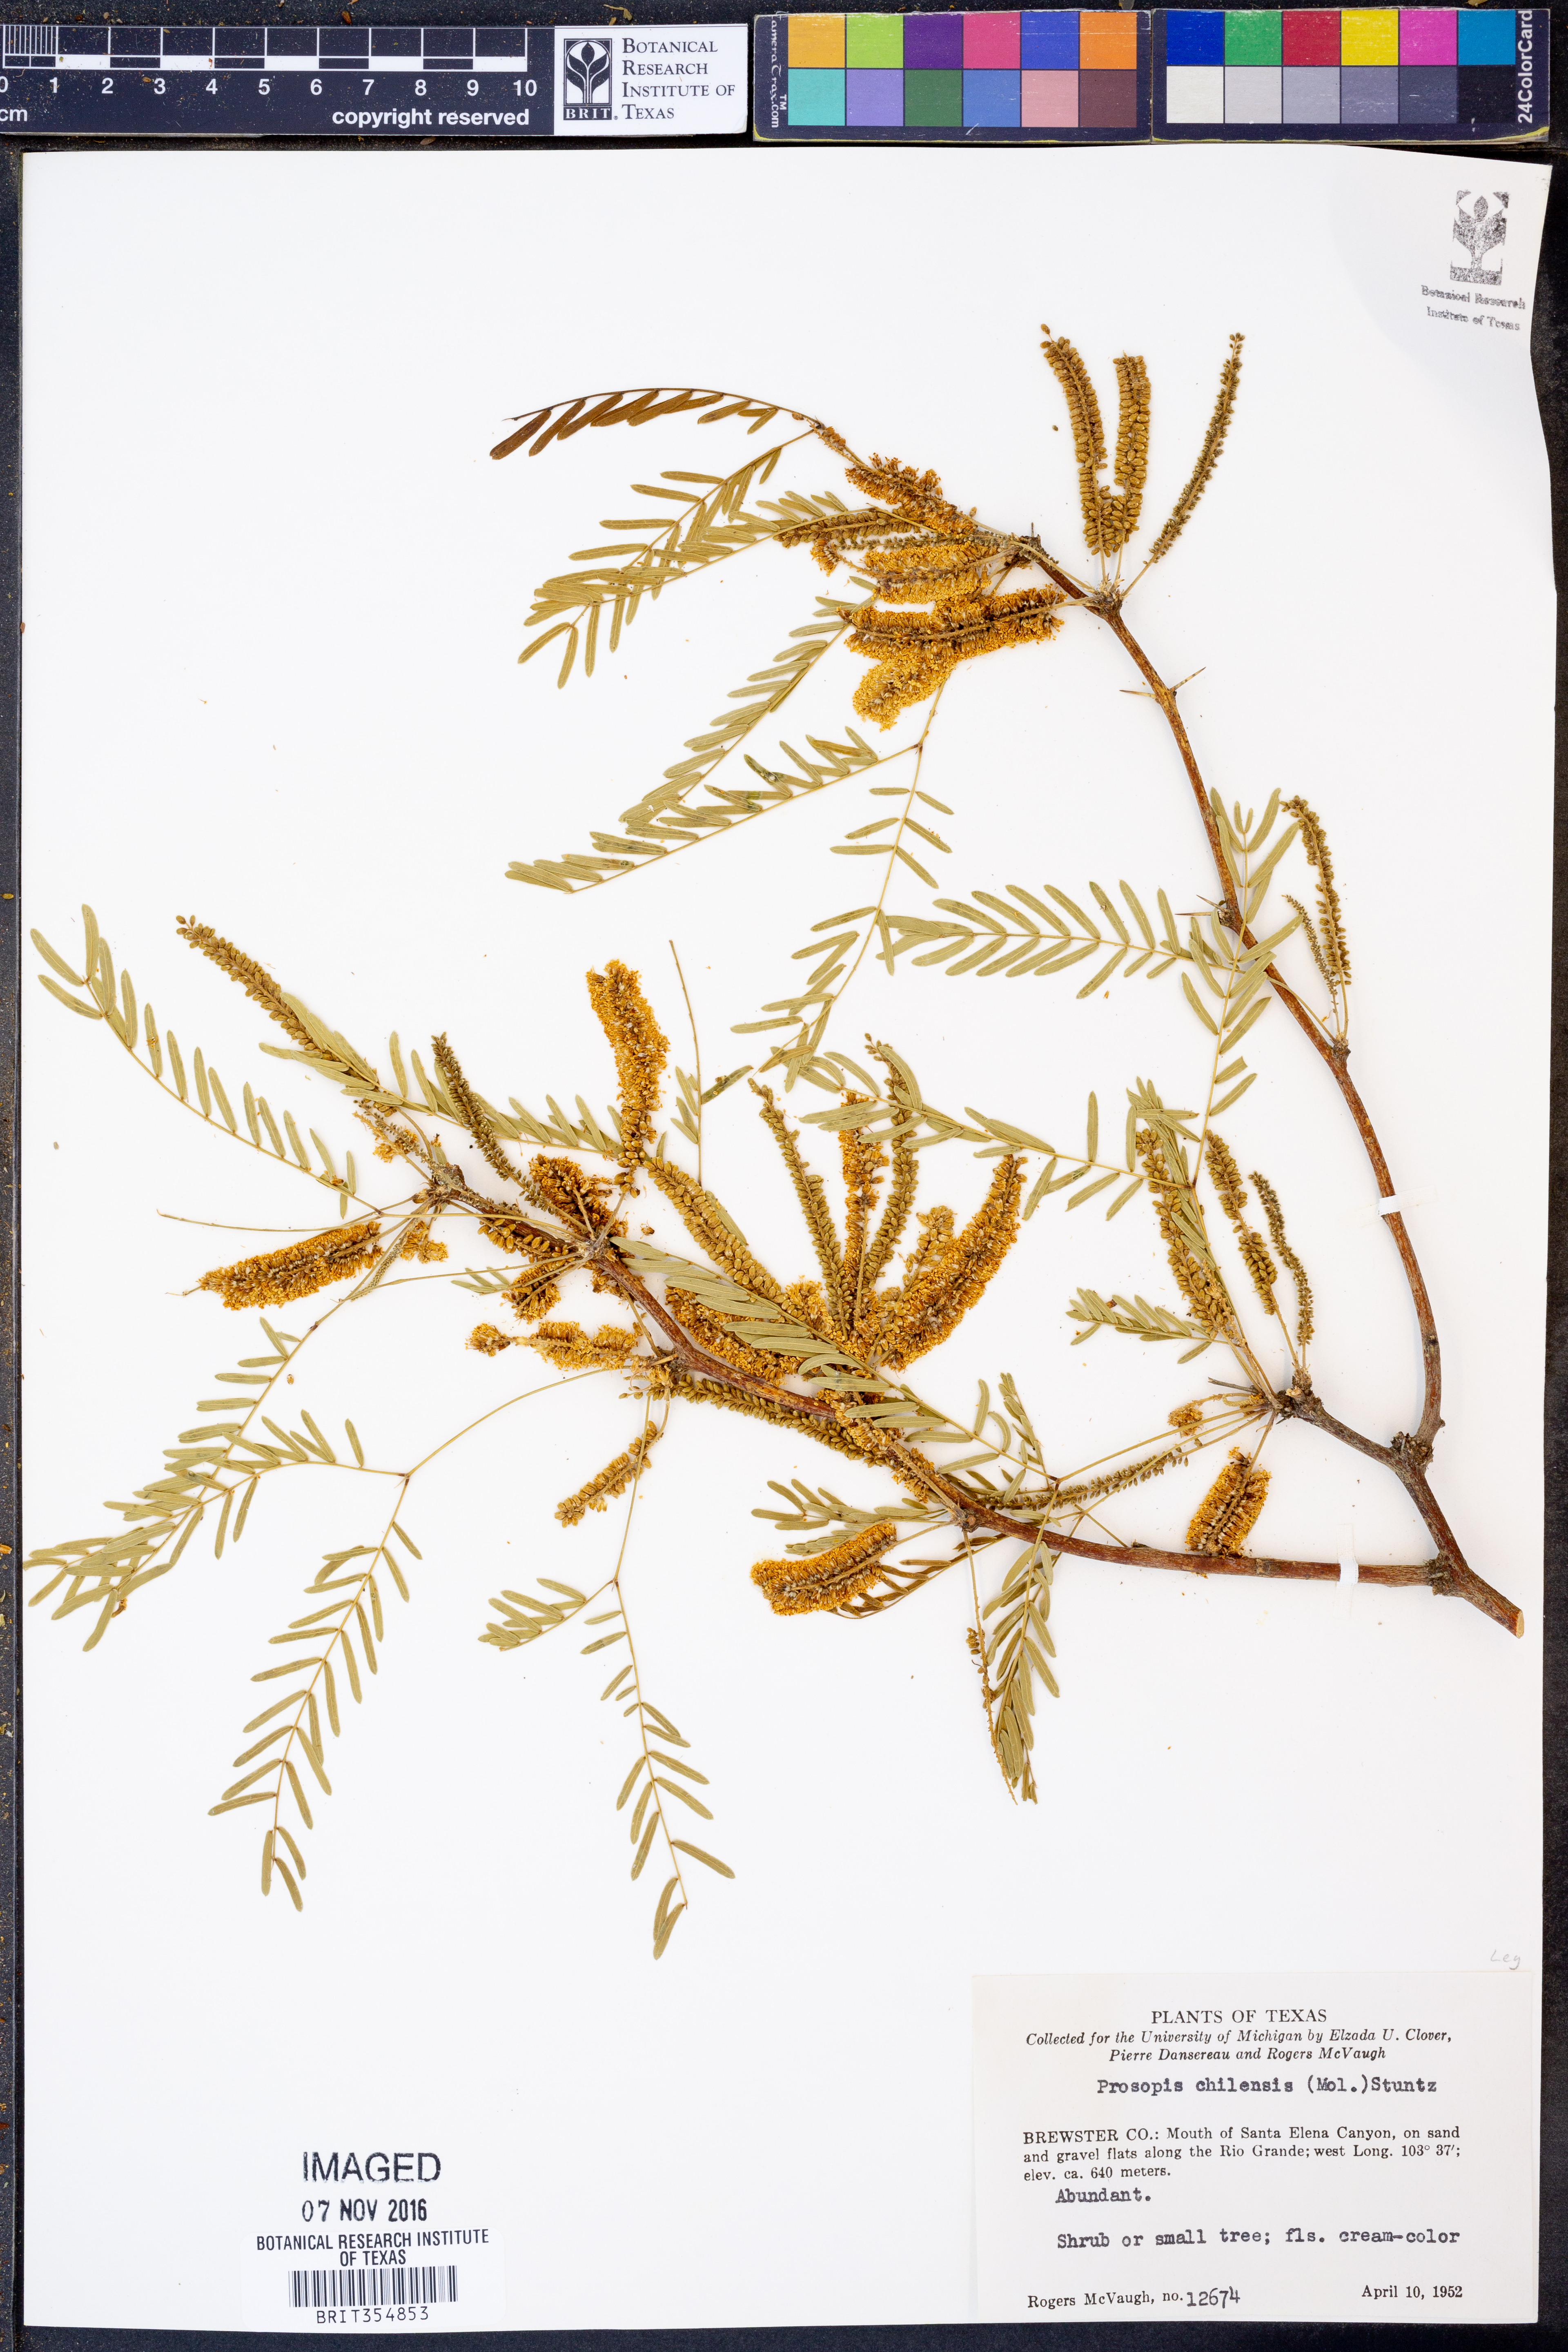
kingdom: Plantae
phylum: Tracheophyta
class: Magnoliopsida
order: Fabales
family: Fabaceae
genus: Prosopis
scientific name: Prosopis chilensis
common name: Chilean algarrobo
